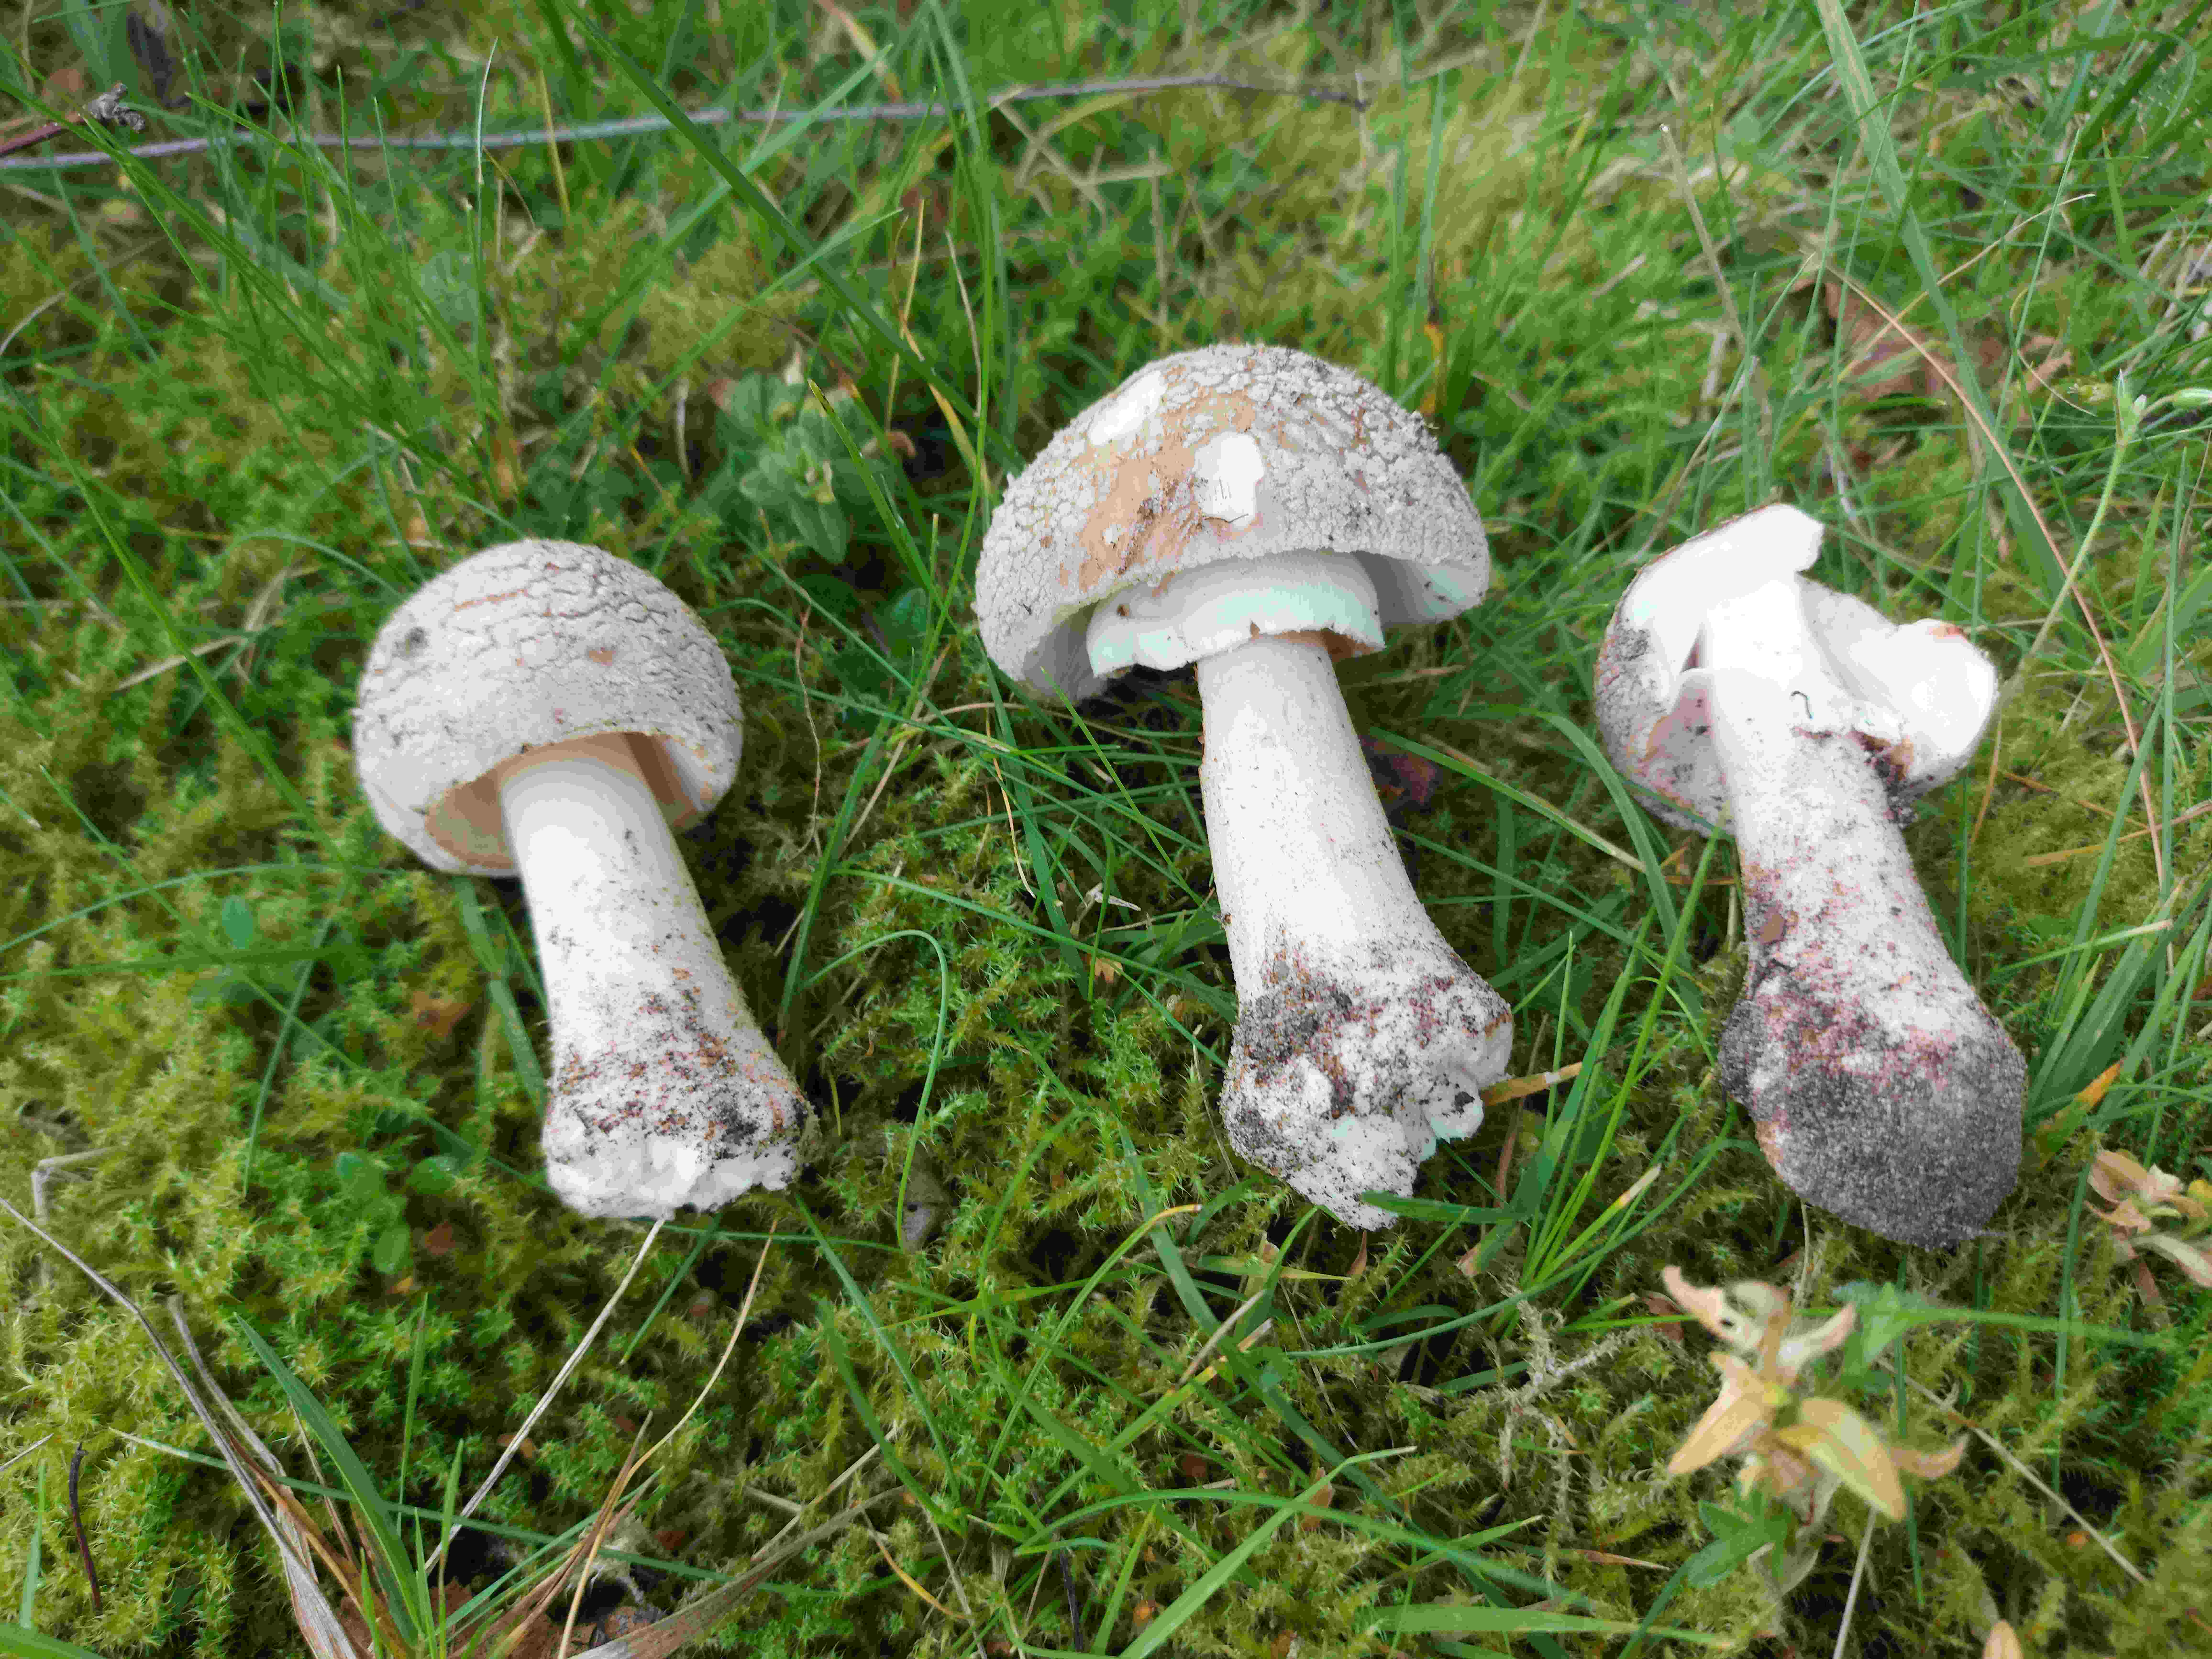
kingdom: Fungi
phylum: Basidiomycota
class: Agaricomycetes
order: Agaricales
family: Amanitaceae
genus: Amanita
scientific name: Amanita rubescens
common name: rødmende fluesvamp
